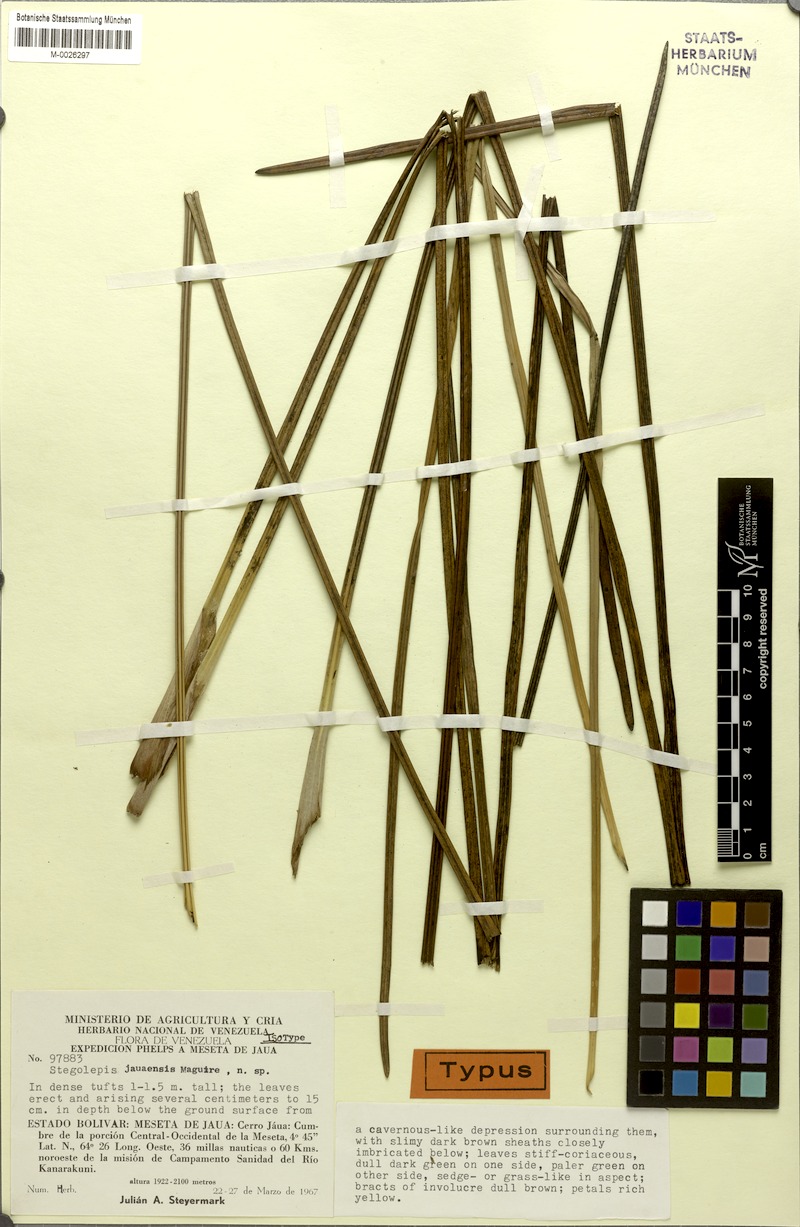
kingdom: Plantae
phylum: Tracheophyta
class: Liliopsida
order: Poales
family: Rapateaceae
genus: Stegolepis
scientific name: Stegolepis jauaensis
